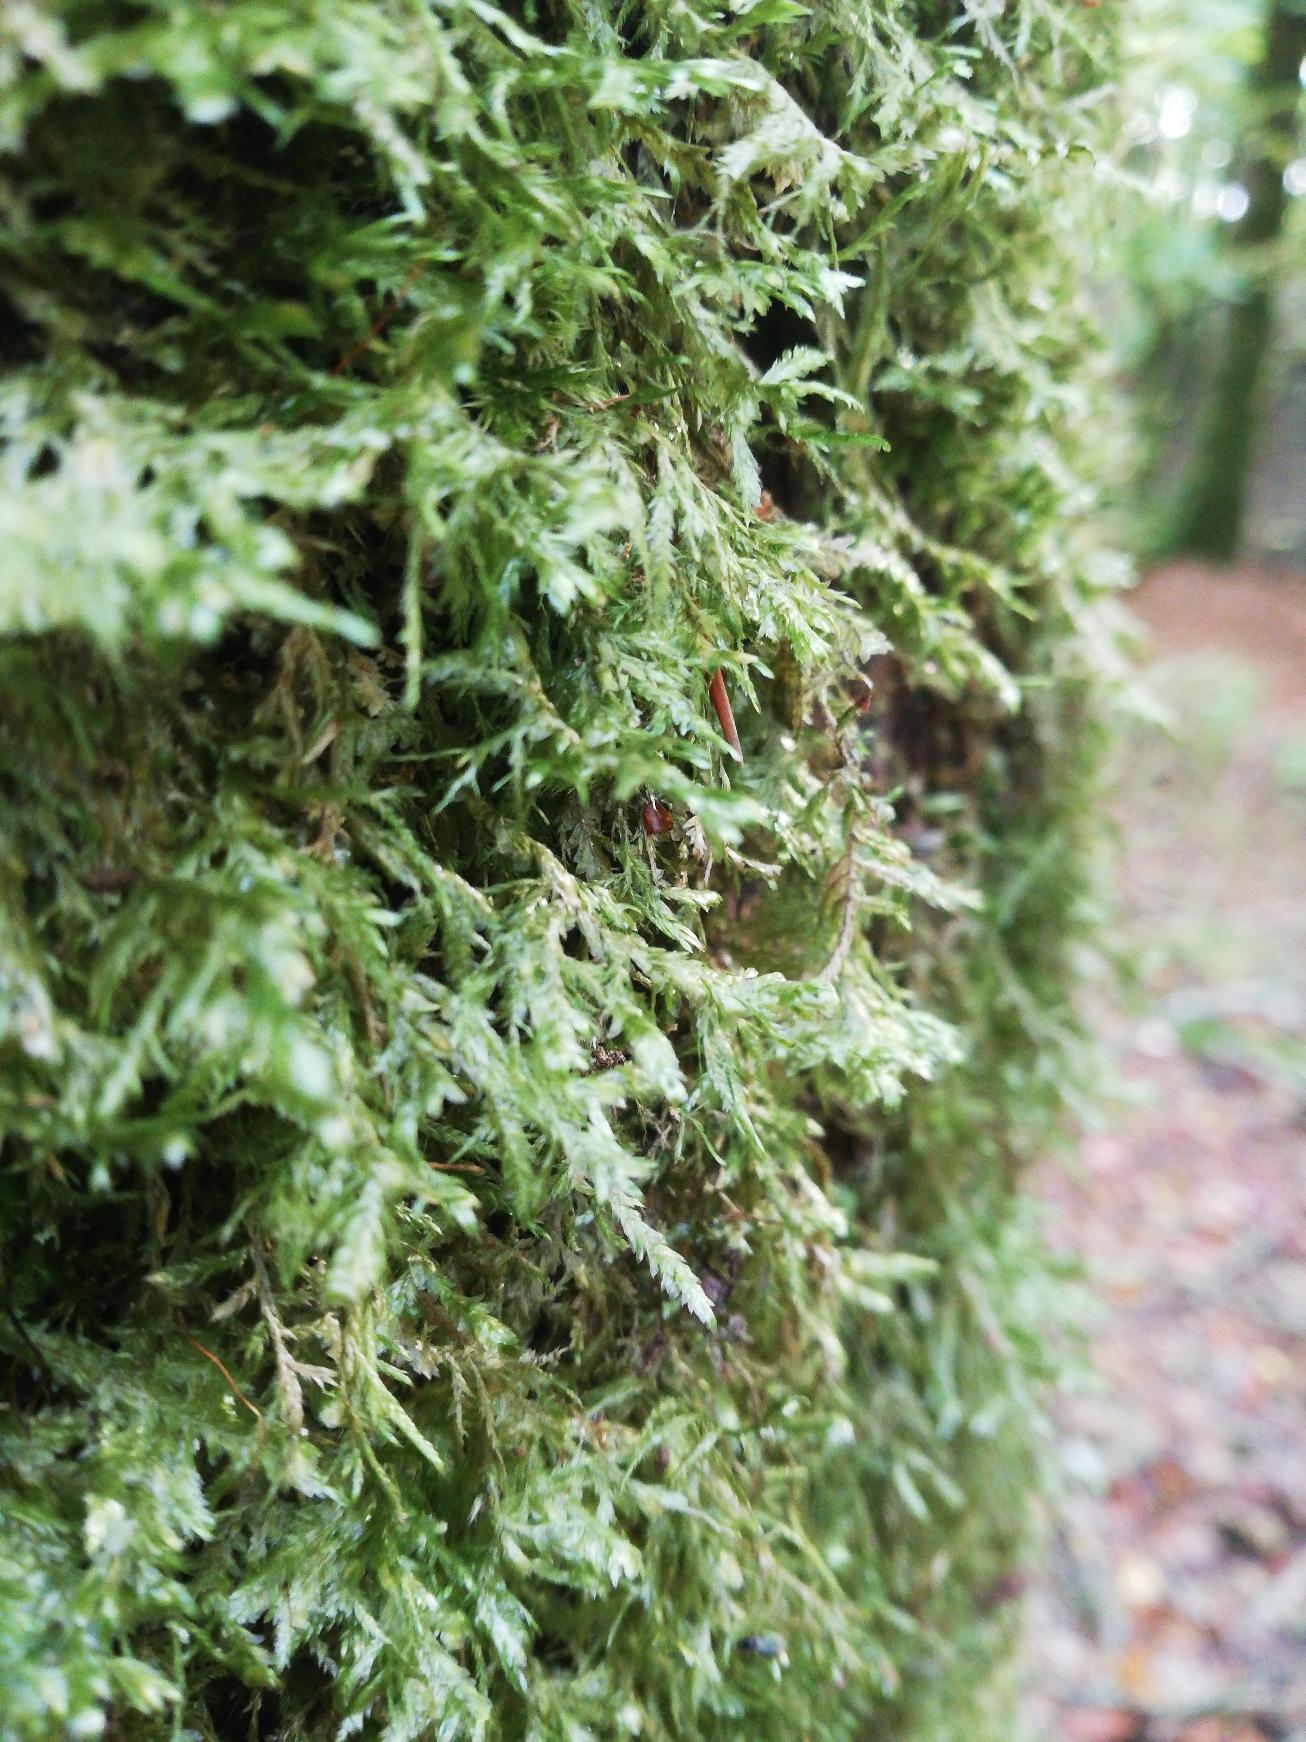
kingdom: Plantae
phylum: Bryophyta
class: Bryopsida
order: Hypnales
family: Neckeraceae
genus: Alleniella
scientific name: Alleniella complanata
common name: Almindelig fladmos
